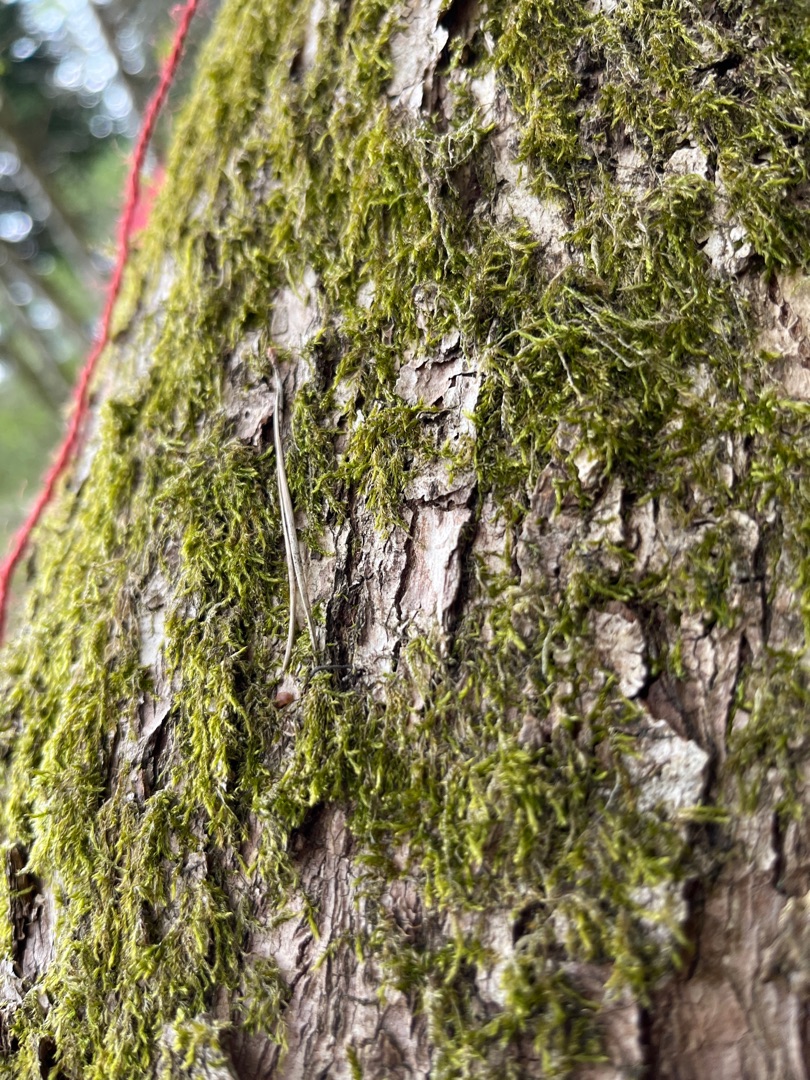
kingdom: Plantae
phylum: Bryophyta
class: Bryopsida
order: Hypnales
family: Hypnaceae
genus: Hypnum
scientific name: Hypnum
